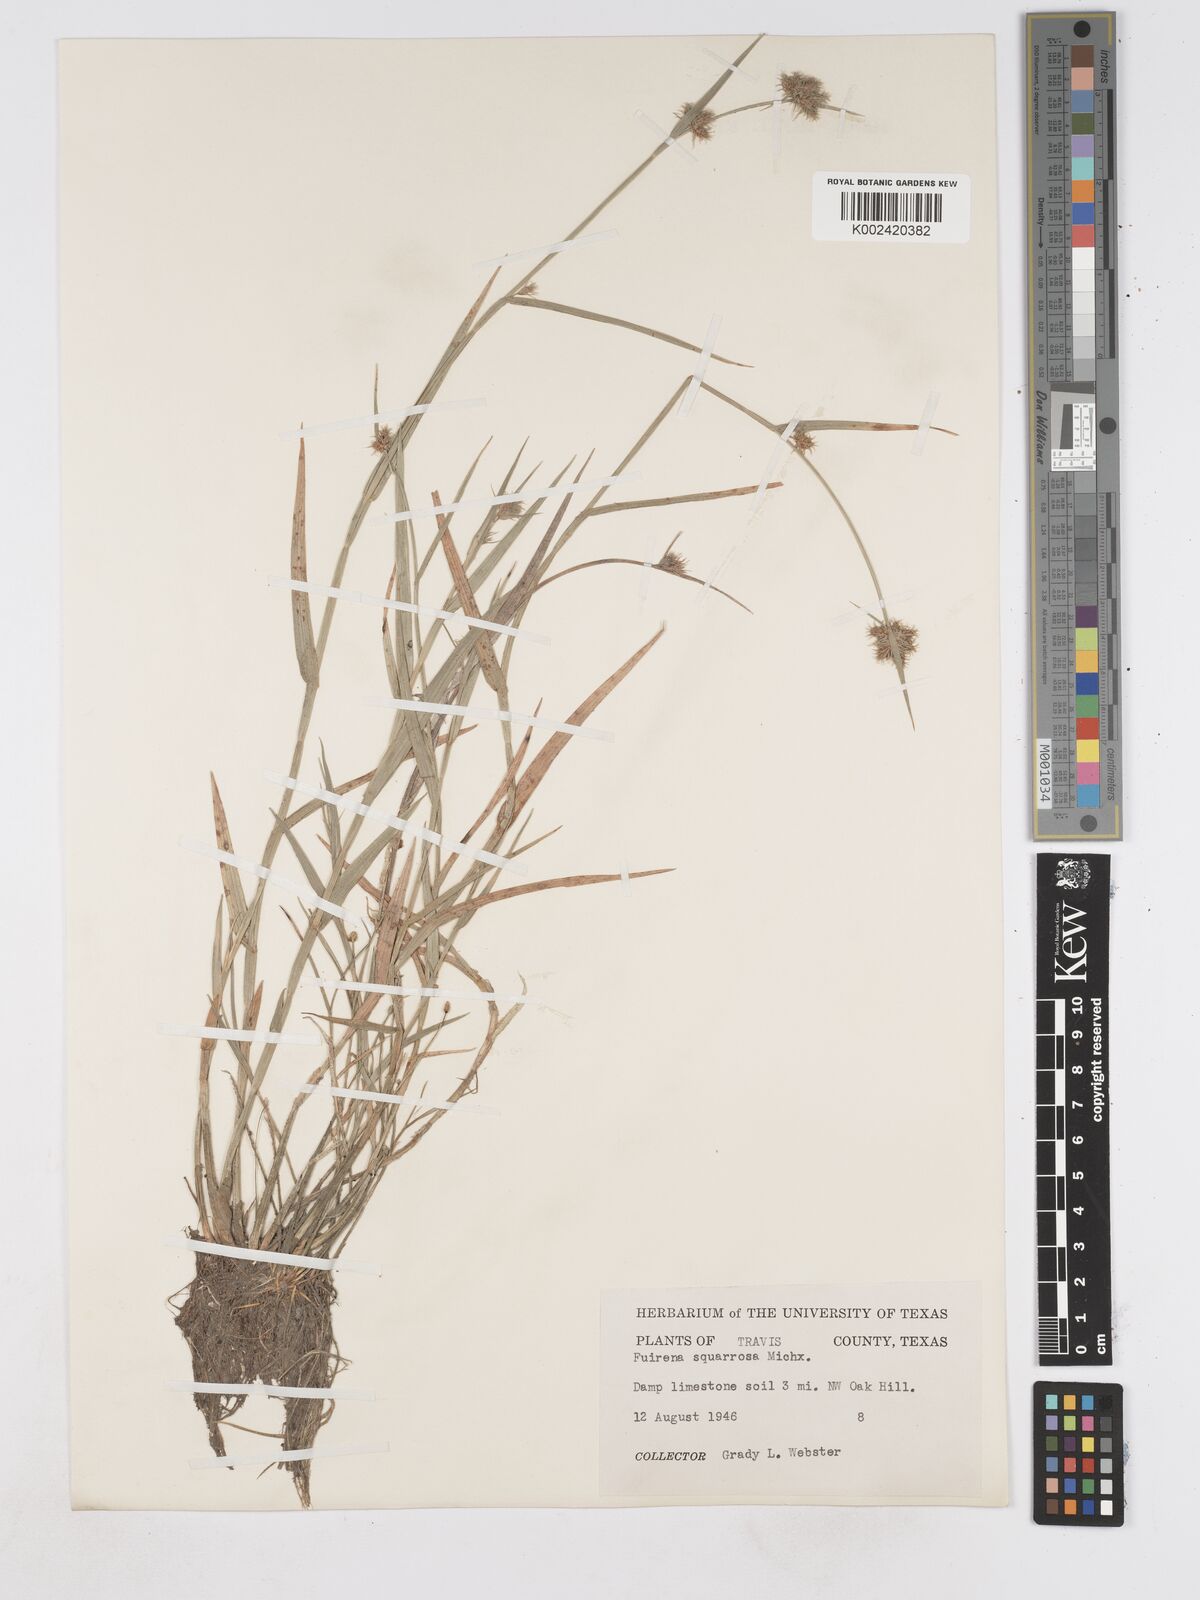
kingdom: Plantae
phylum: Tracheophyta
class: Liliopsida
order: Poales
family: Cyperaceae
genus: Fuirena
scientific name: Fuirena squarrosa
